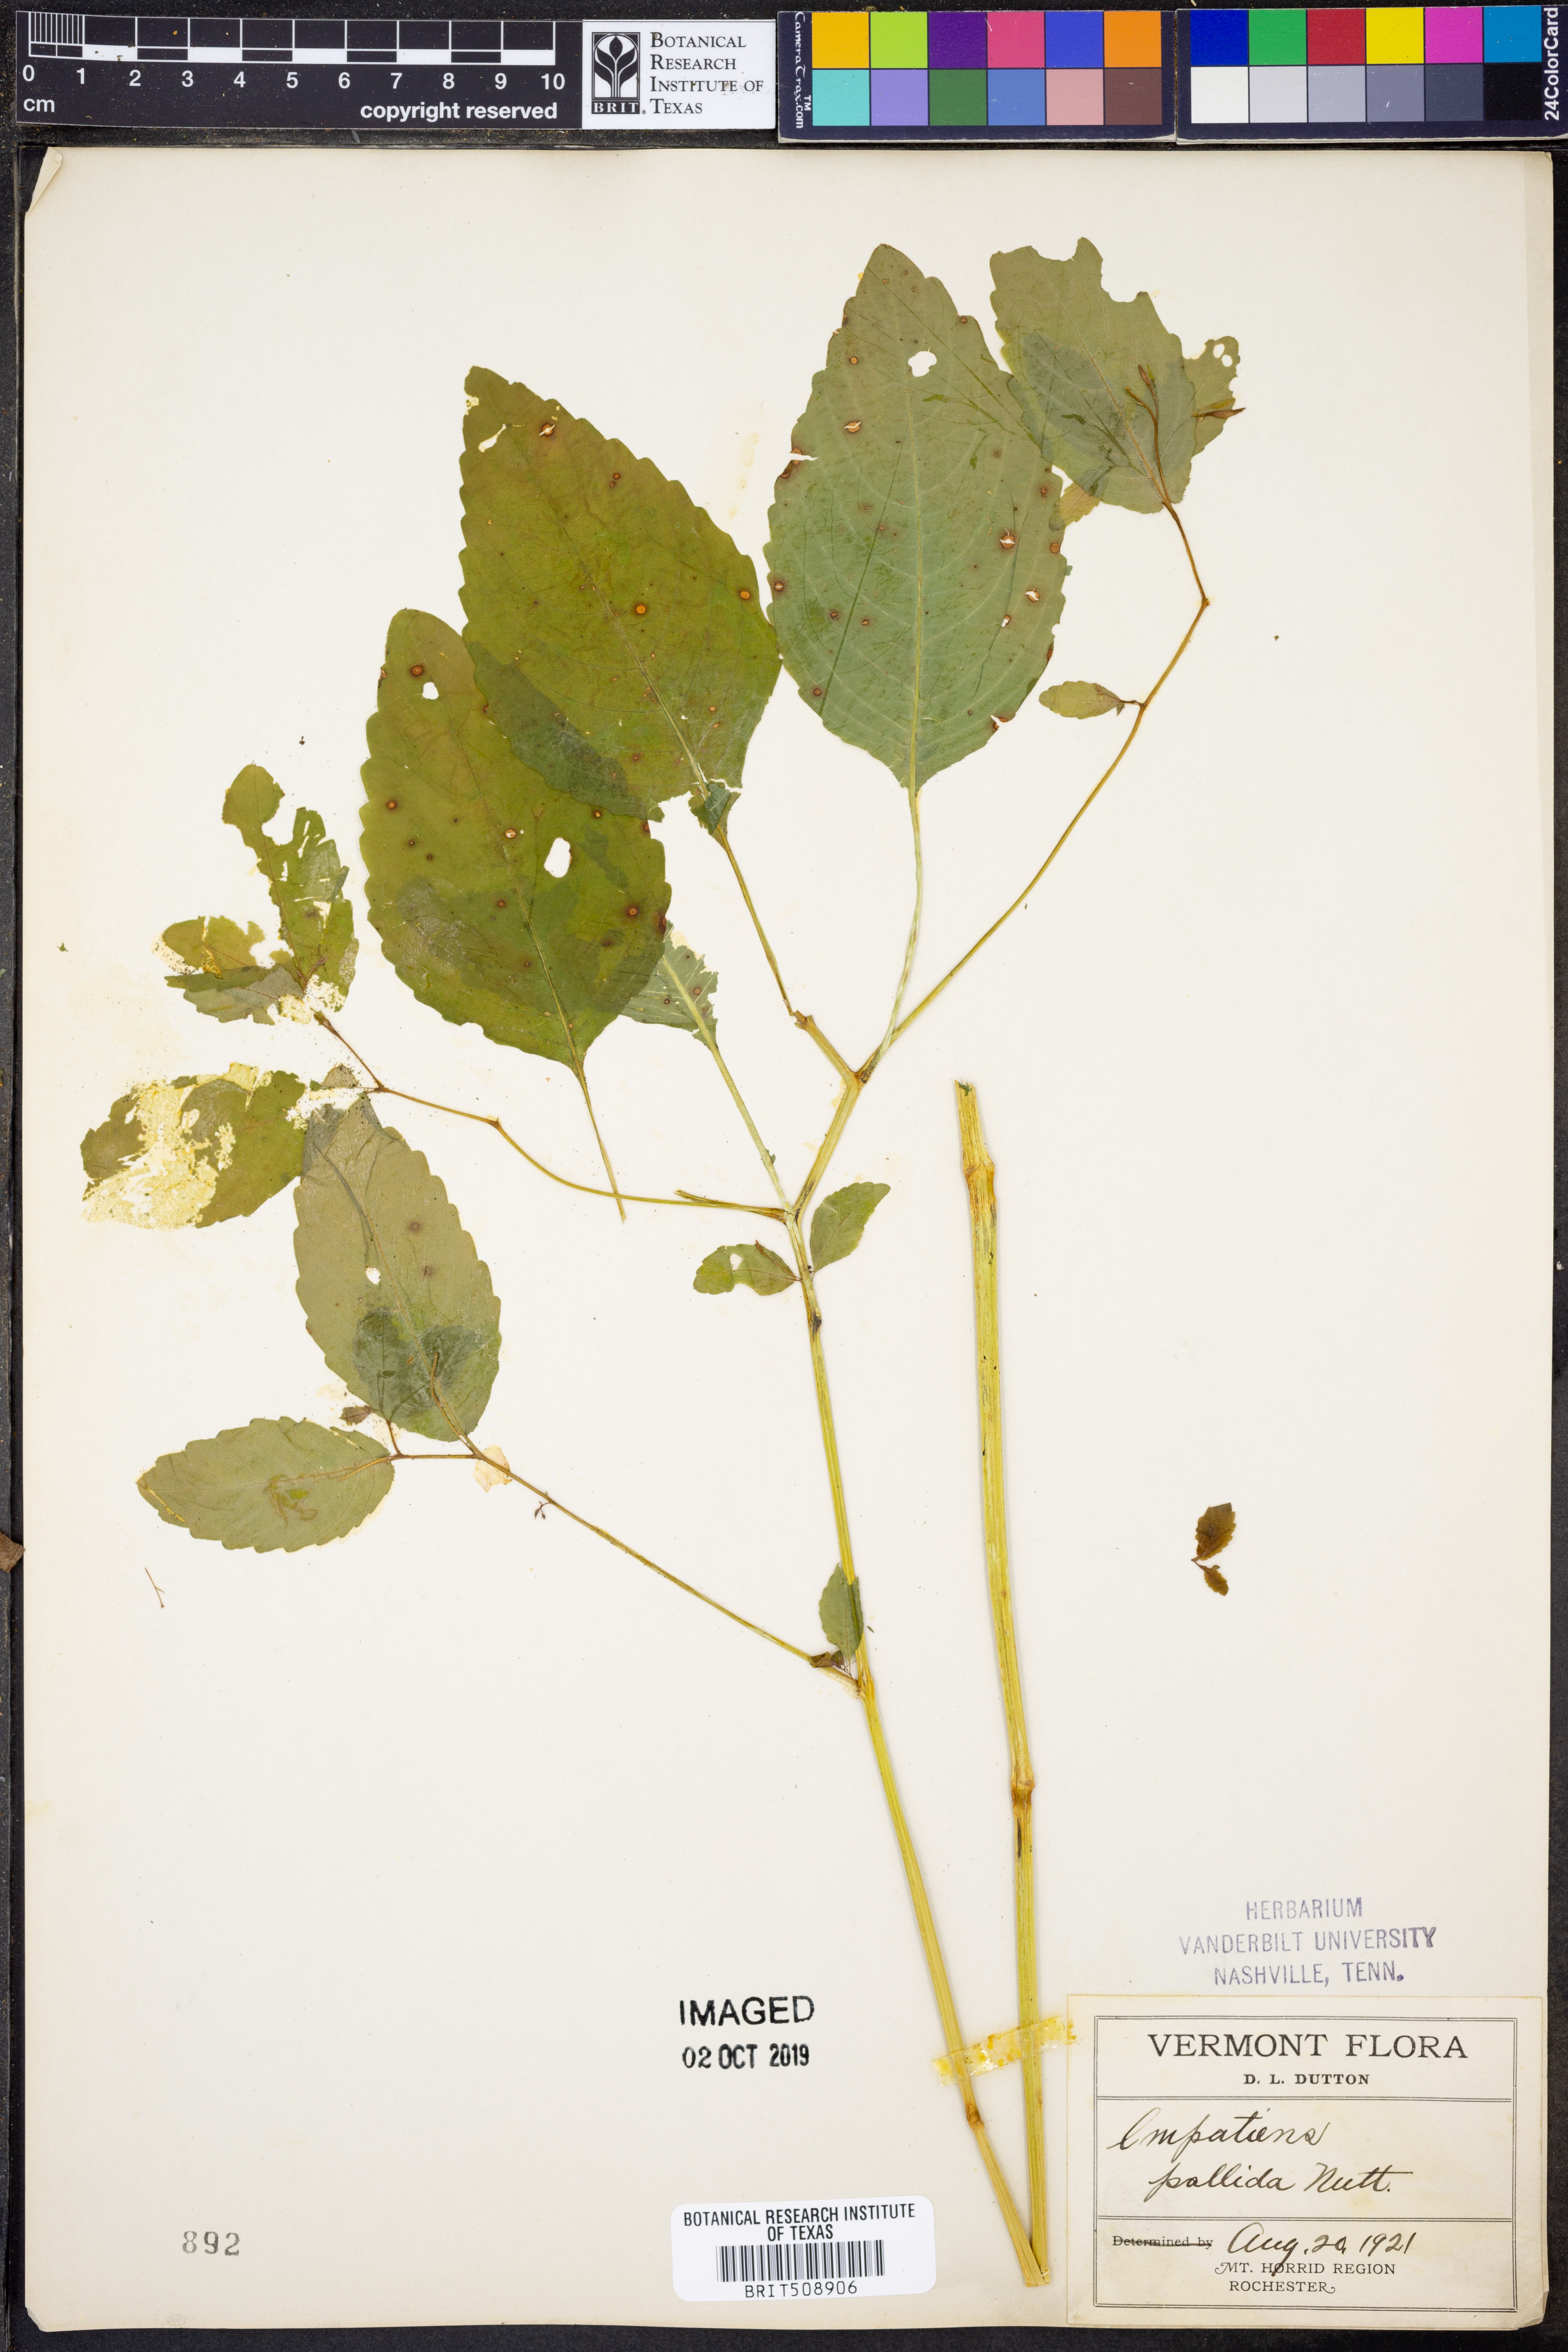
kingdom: Plantae
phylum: Tracheophyta
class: Magnoliopsida
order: Ericales
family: Balsaminaceae
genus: Impatiens
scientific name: Impatiens pallida
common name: Pale snapweed
